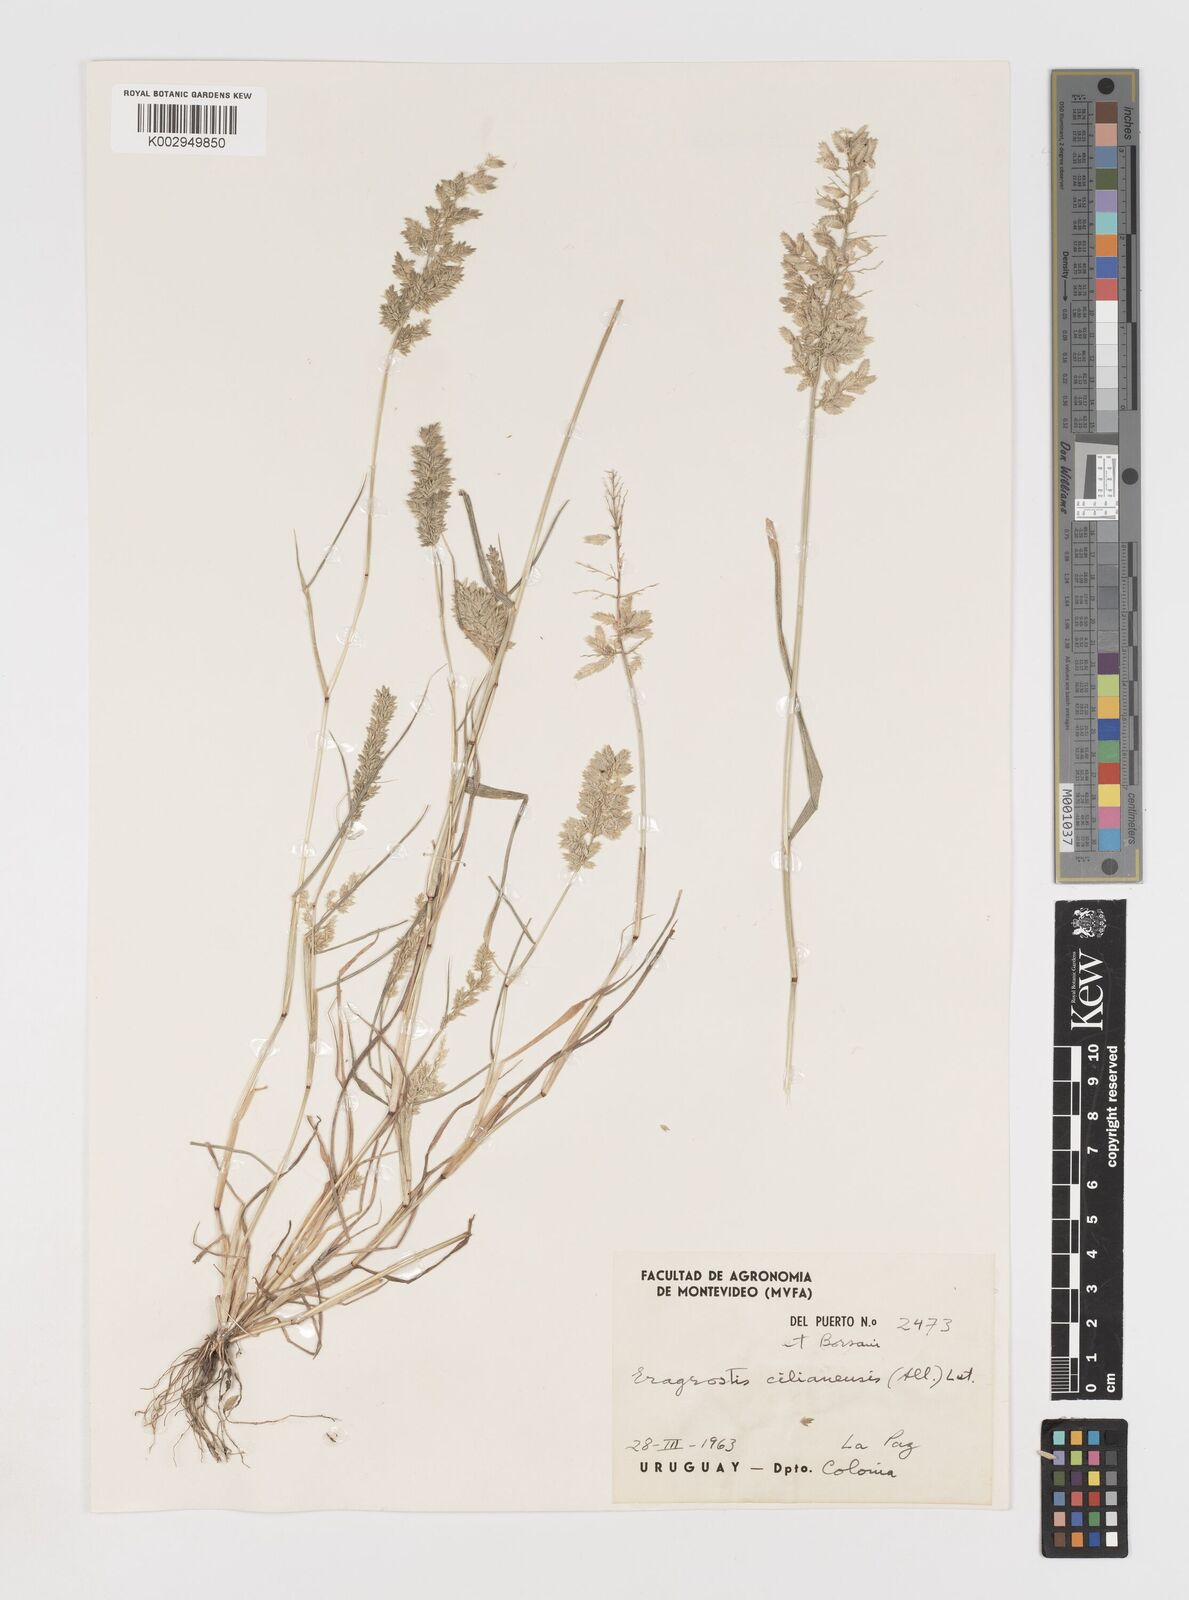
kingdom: Plantae
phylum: Tracheophyta
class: Liliopsida
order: Poales
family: Poaceae
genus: Eragrostis
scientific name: Eragrostis cilianensis
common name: Stinkgrass
